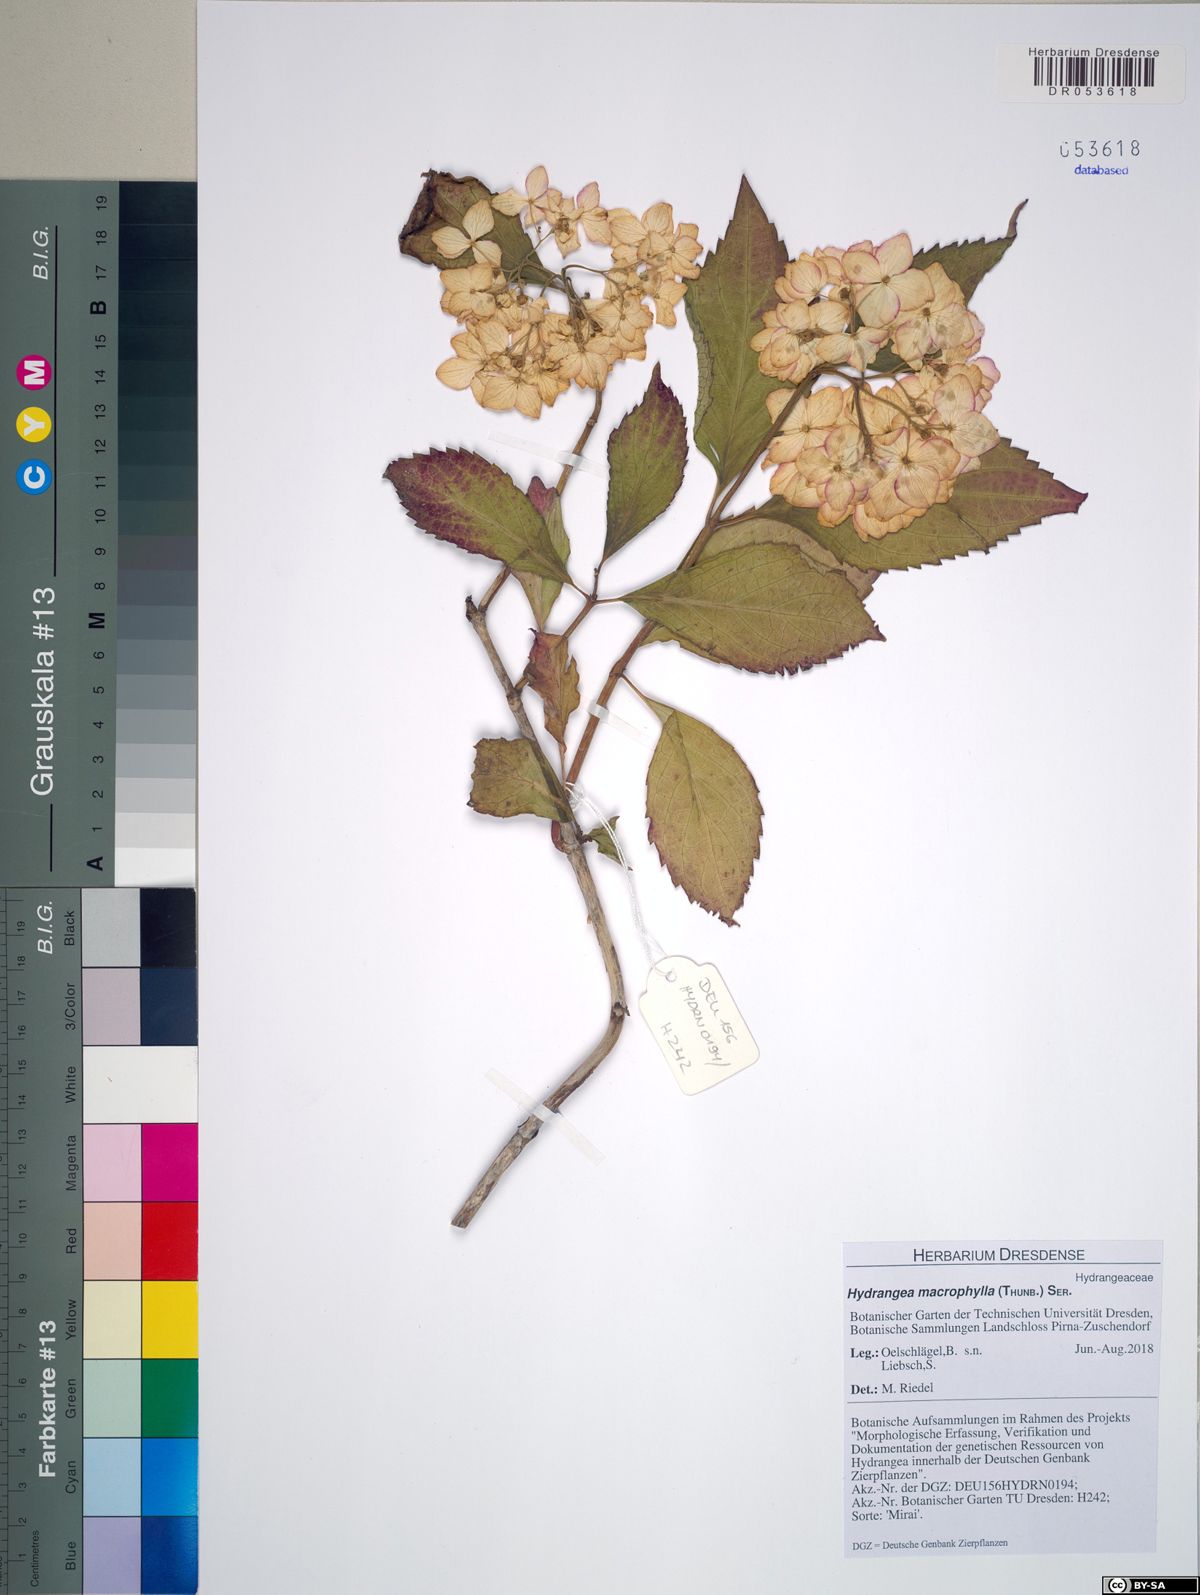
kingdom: Plantae
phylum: Tracheophyta
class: Magnoliopsida
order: Cornales
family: Hydrangeaceae
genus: Hydrangea
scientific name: Hydrangea macrophylla
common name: Hydrangea
